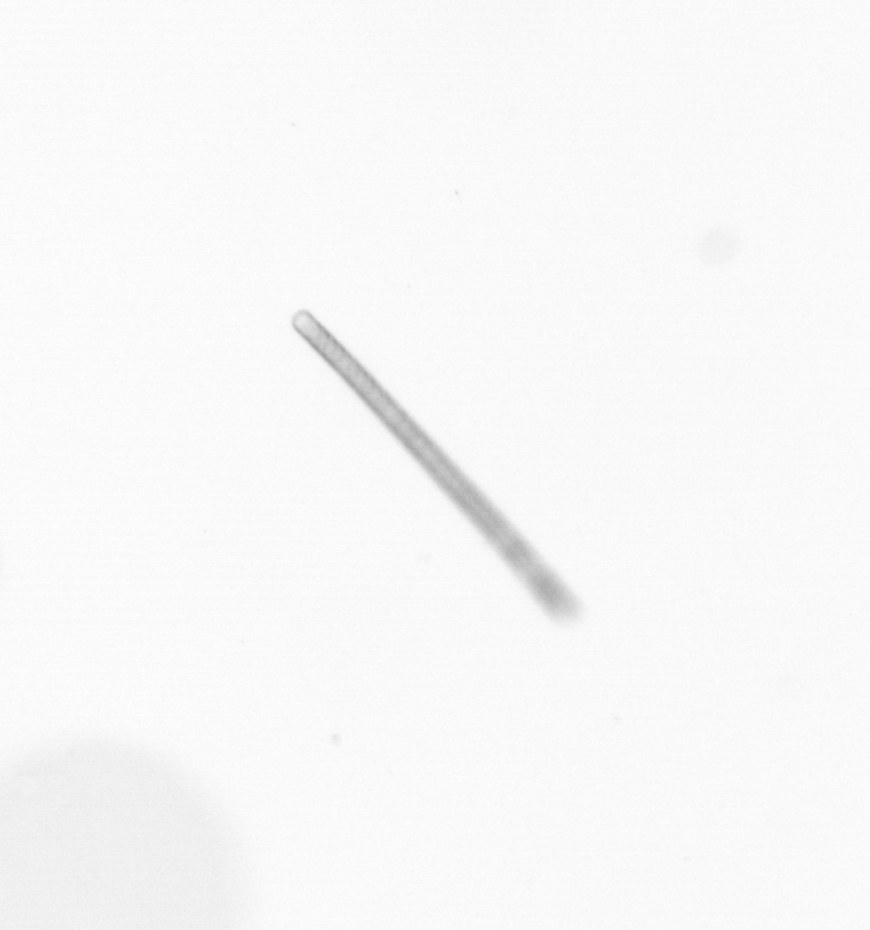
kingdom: Chromista
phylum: Ochrophyta
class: Bacillariophyceae
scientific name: Bacillariophyceae
